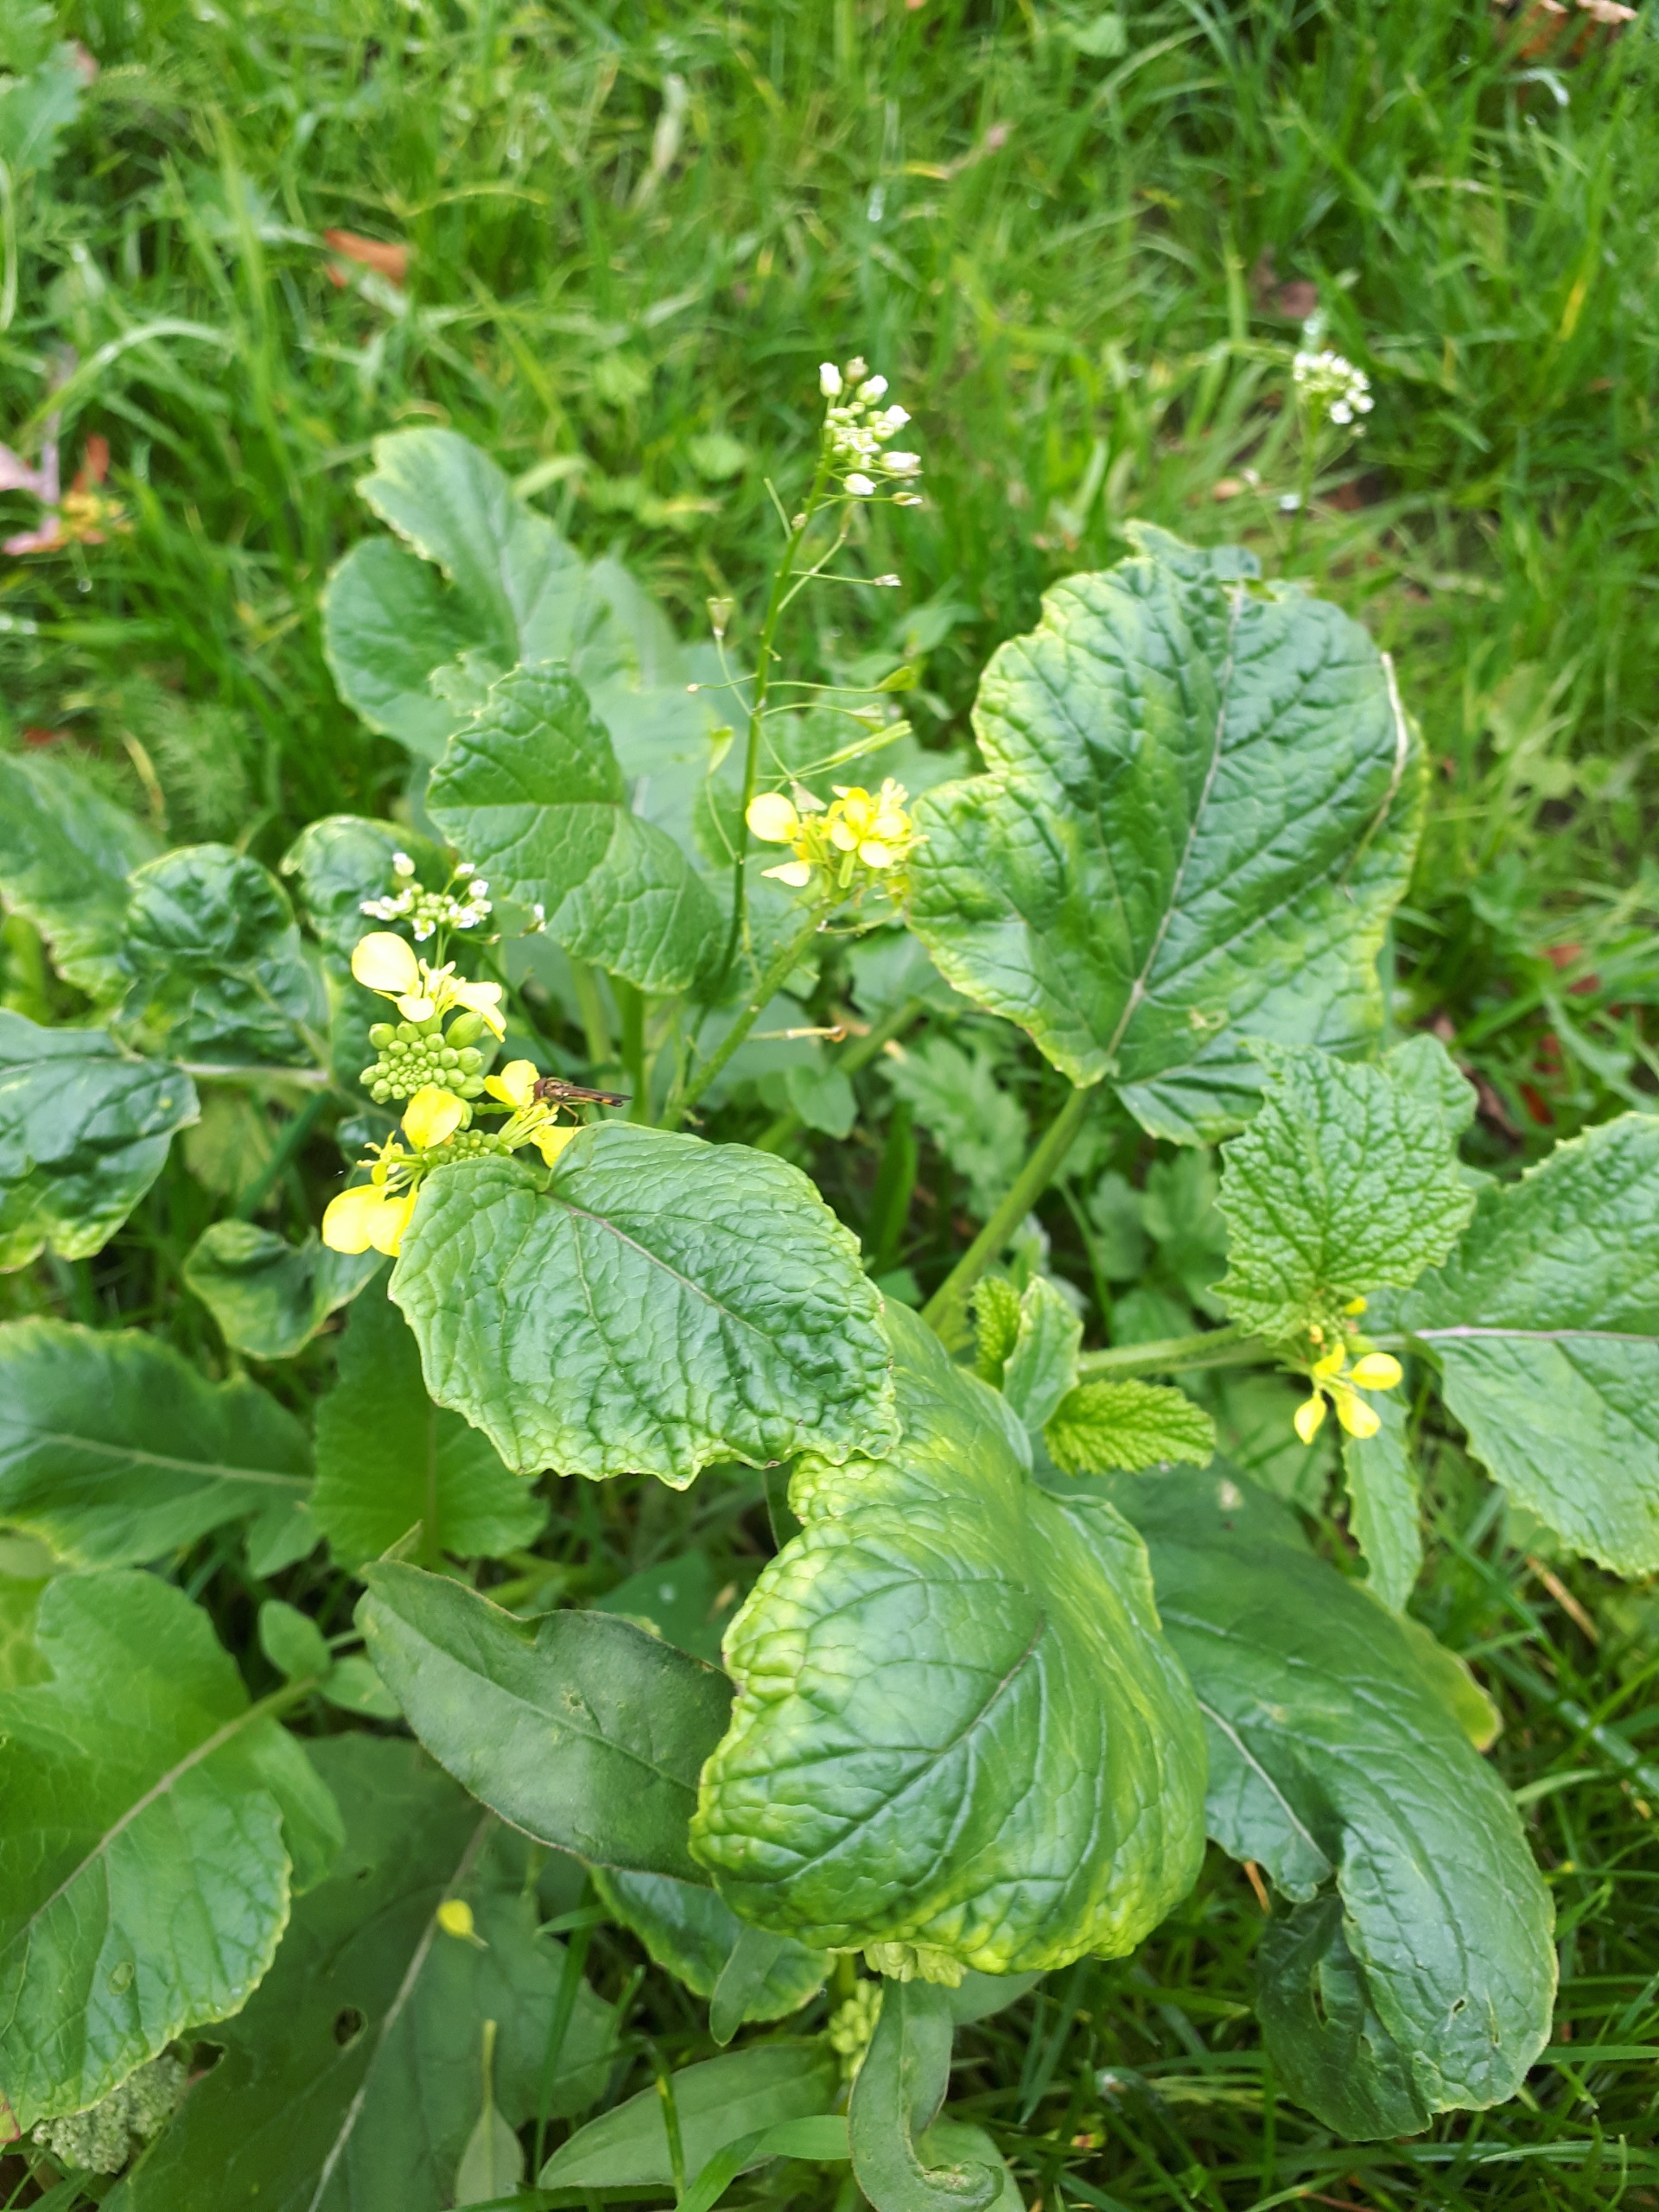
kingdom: Plantae
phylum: Tracheophyta
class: Magnoliopsida
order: Brassicales
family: Brassicaceae
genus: Sinapis
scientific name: Sinapis arvensis
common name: Ager-sennep
